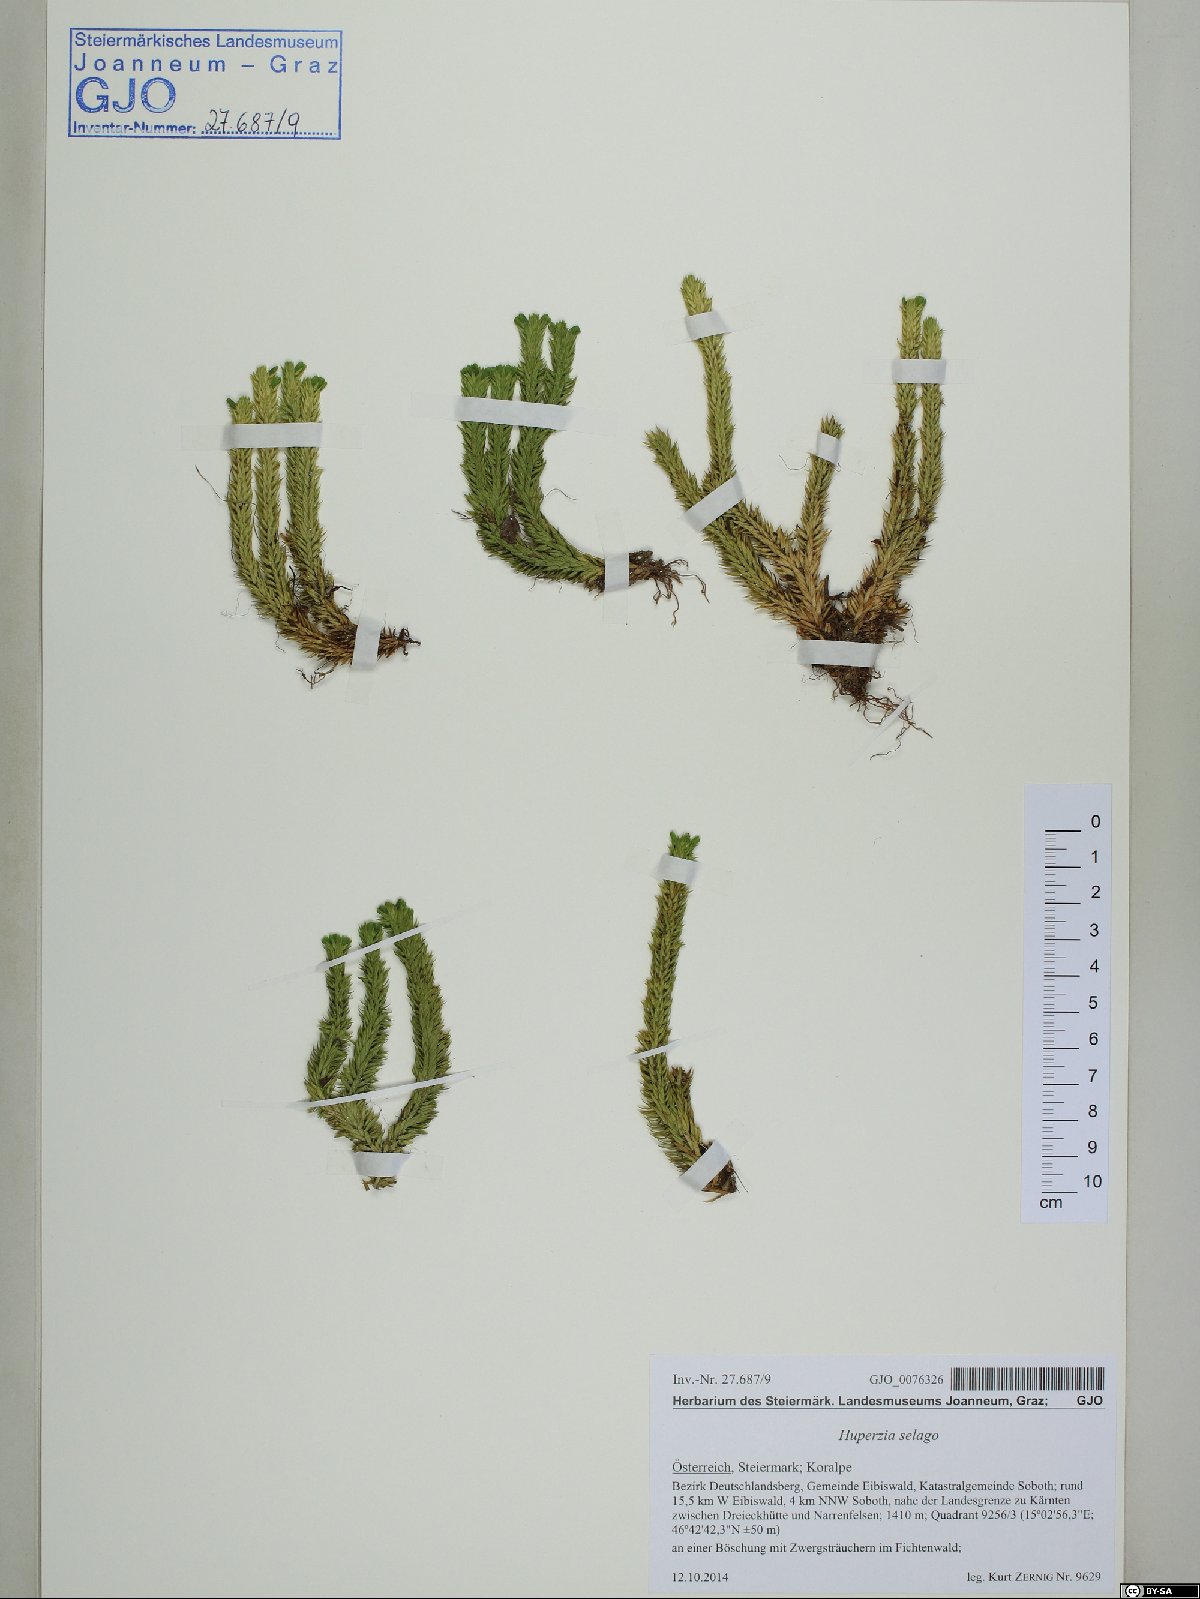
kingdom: Plantae
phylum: Tracheophyta
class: Lycopodiopsida
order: Lycopodiales
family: Lycopodiaceae
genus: Huperzia
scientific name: Huperzia selago
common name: Northern firmoss
